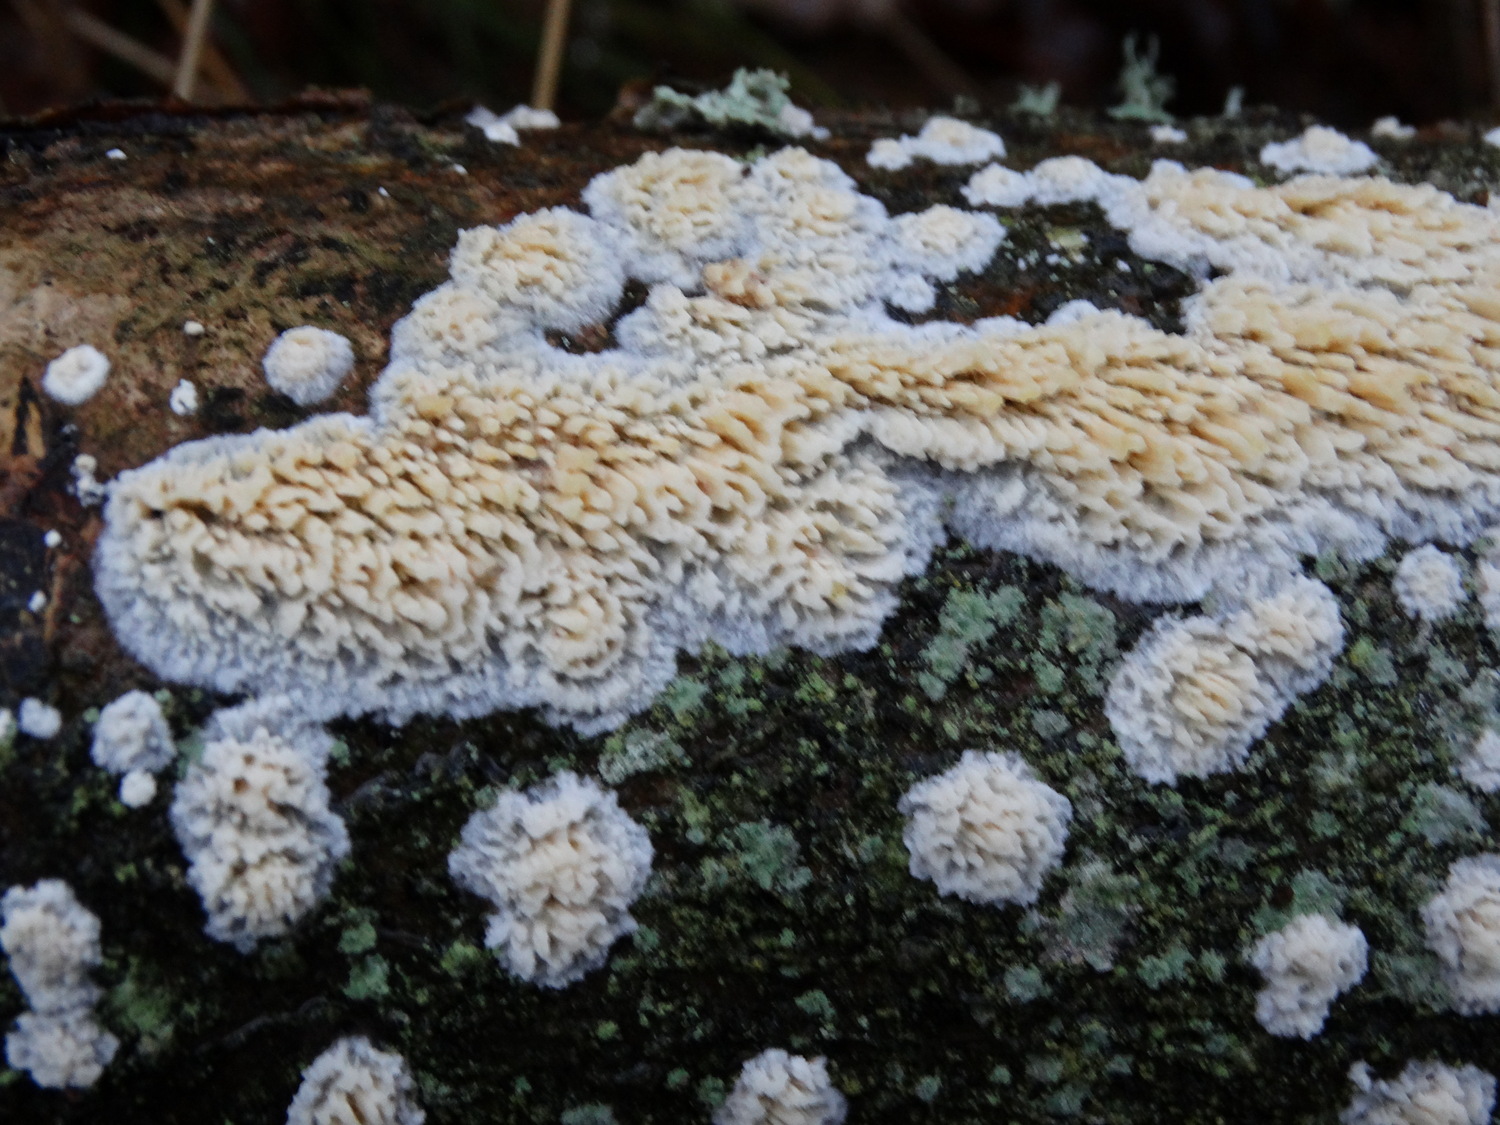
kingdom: Fungi
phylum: Basidiomycota
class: Agaricomycetes
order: Hymenochaetales
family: Schizoporaceae
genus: Xylodon
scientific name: Xylodon radula
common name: grovtandet kalkskind
